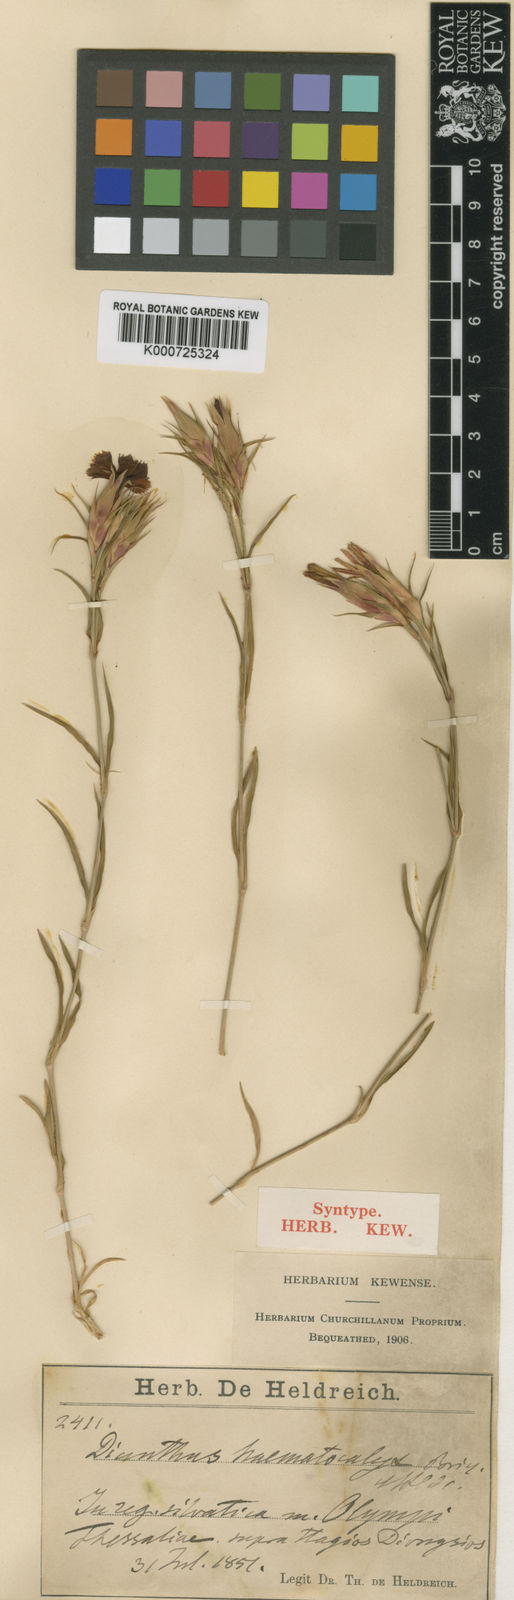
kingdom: Plantae
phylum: Tracheophyta
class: Magnoliopsida
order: Caryophyllales
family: Caryophyllaceae
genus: Dianthus
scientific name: Dianthus haematocalyx
